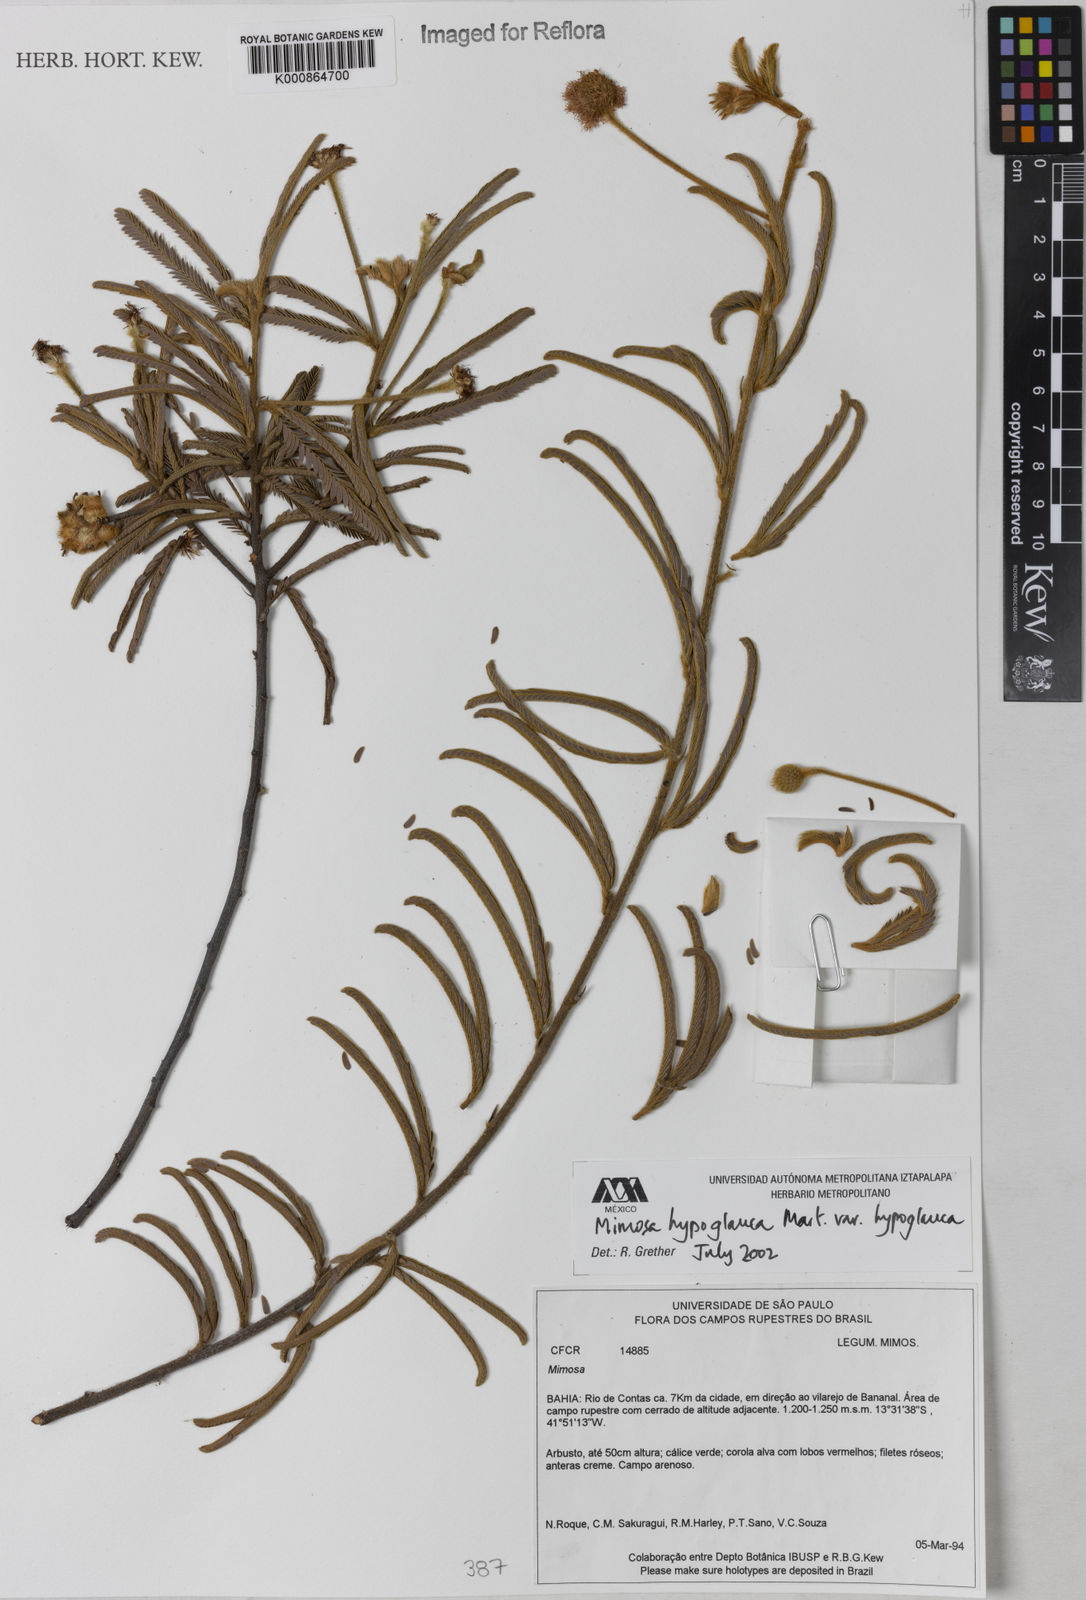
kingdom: Plantae
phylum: Tracheophyta
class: Magnoliopsida
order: Fabales
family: Fabaceae
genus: Mimosa
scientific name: Mimosa hypoglauca
